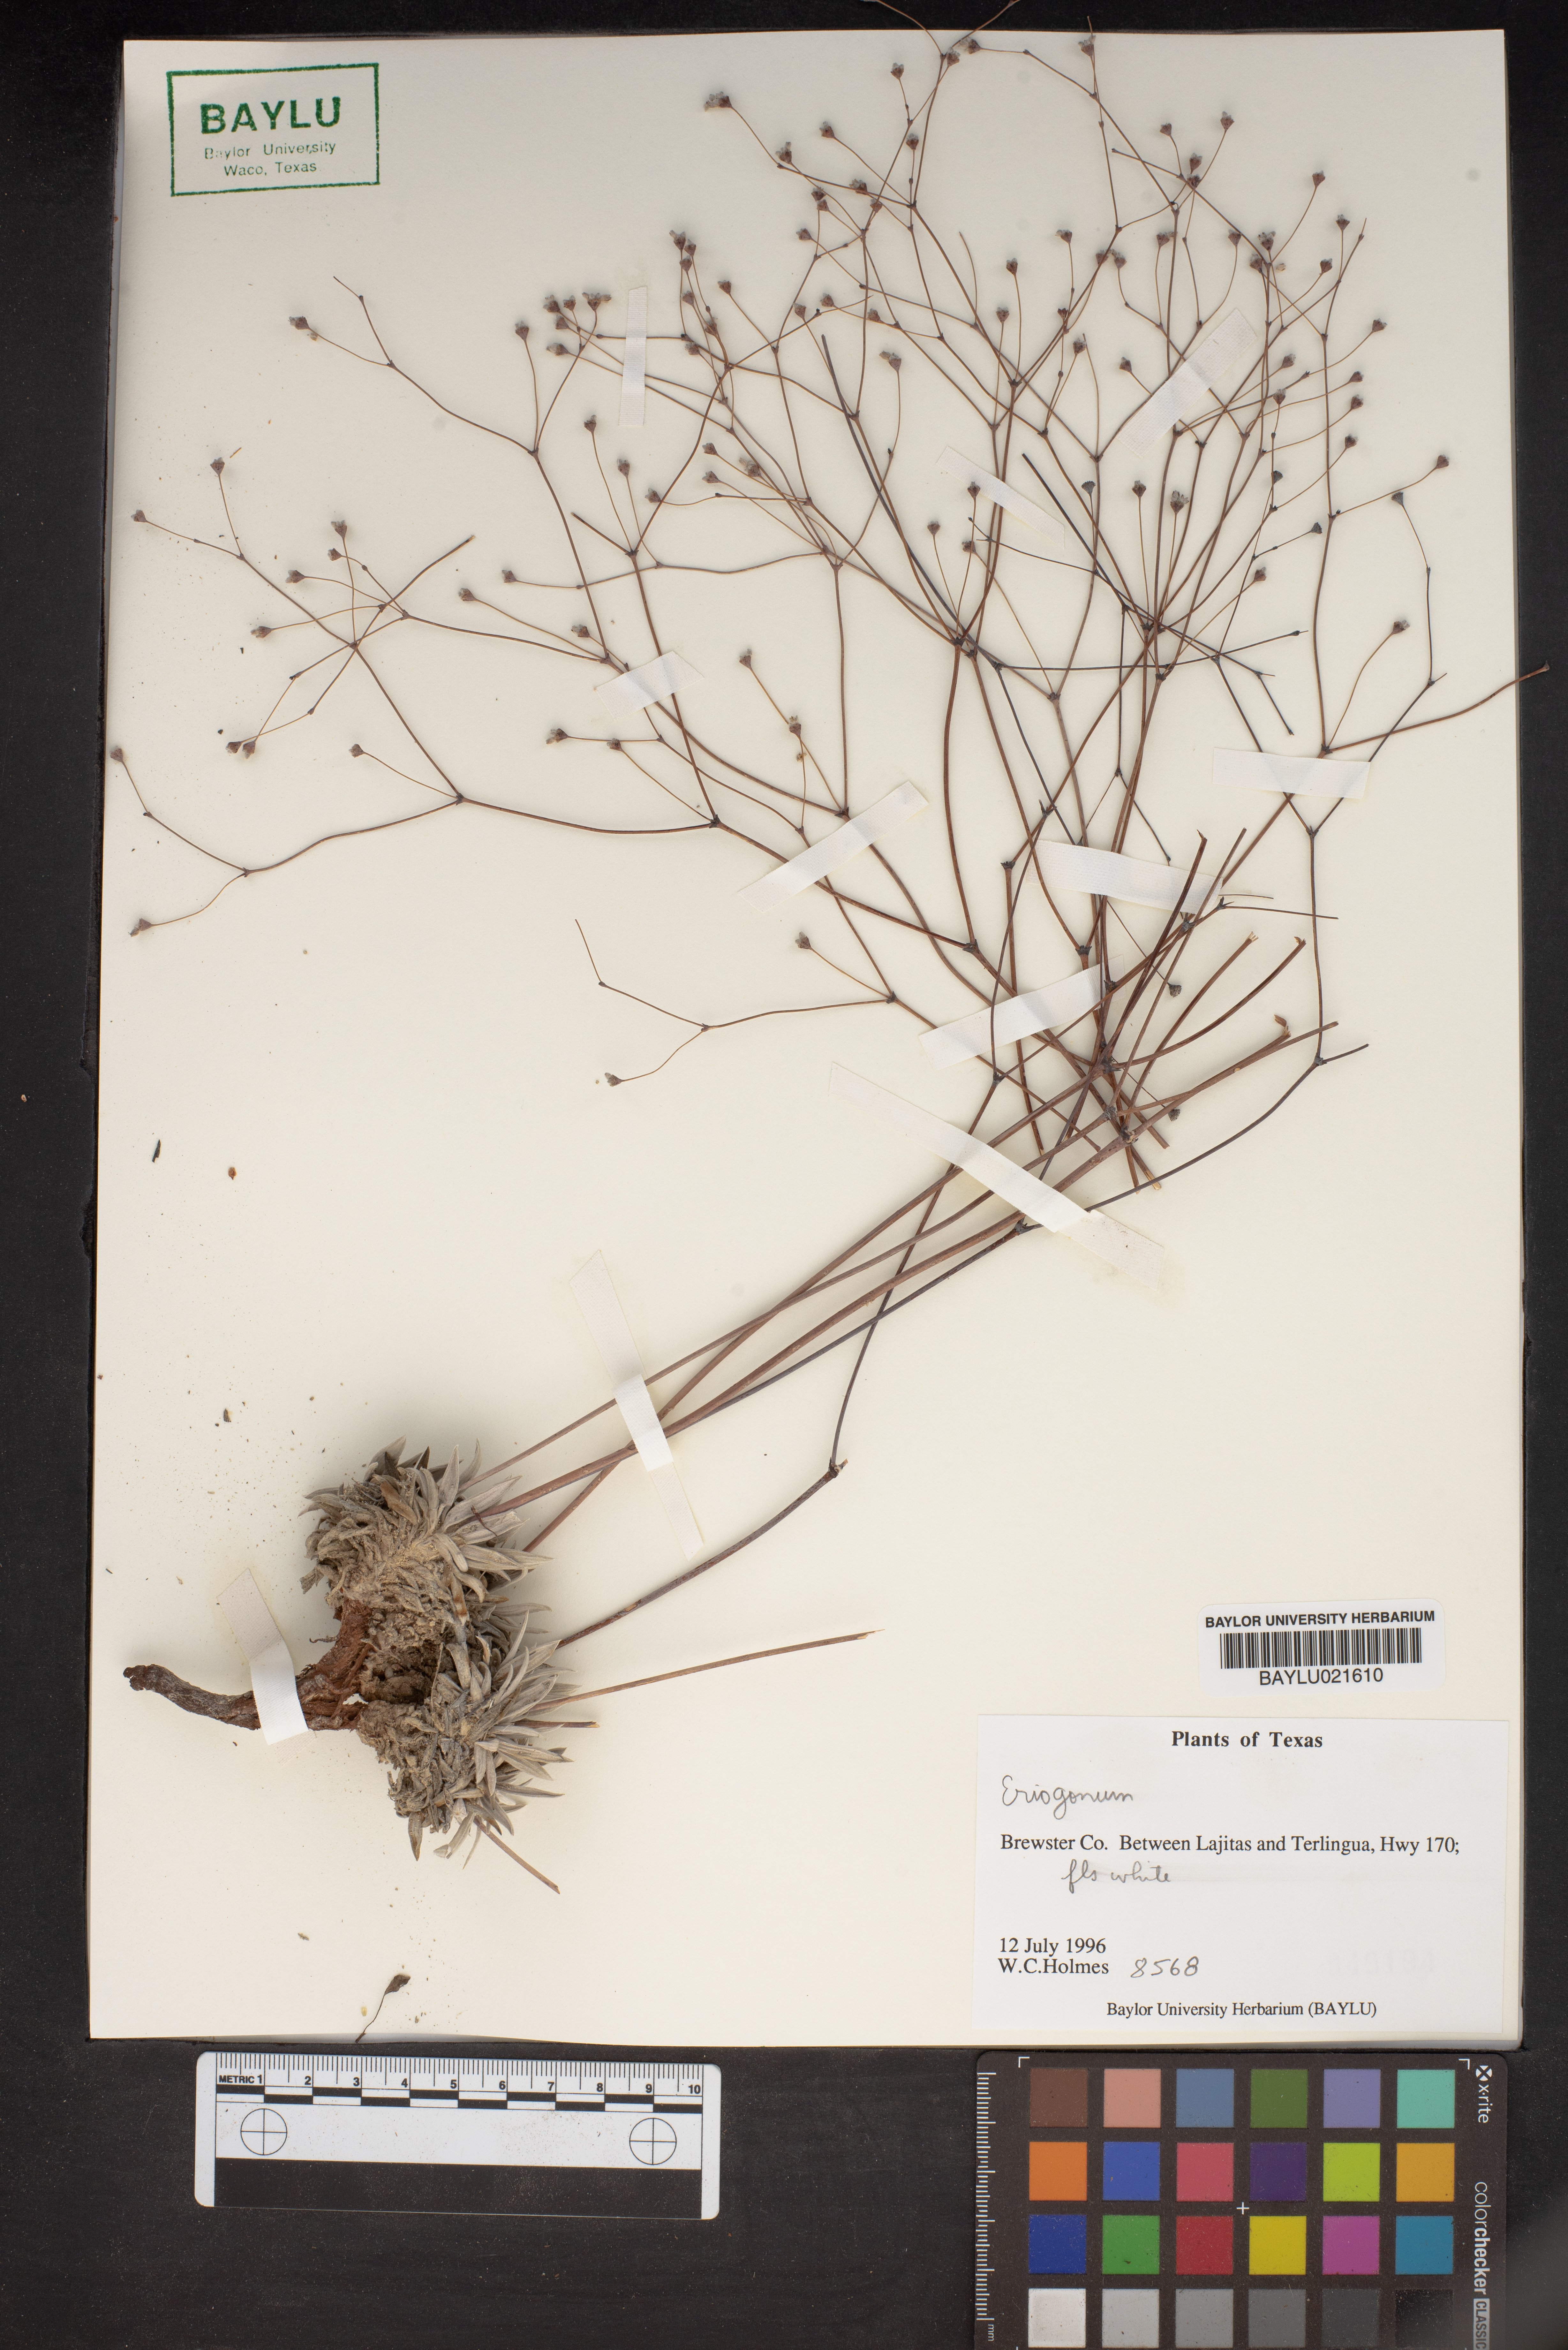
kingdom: Plantae
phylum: Tracheophyta
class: Magnoliopsida
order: Caryophyllales
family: Polygonaceae
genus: Eriogonum
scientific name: Eriogonum
